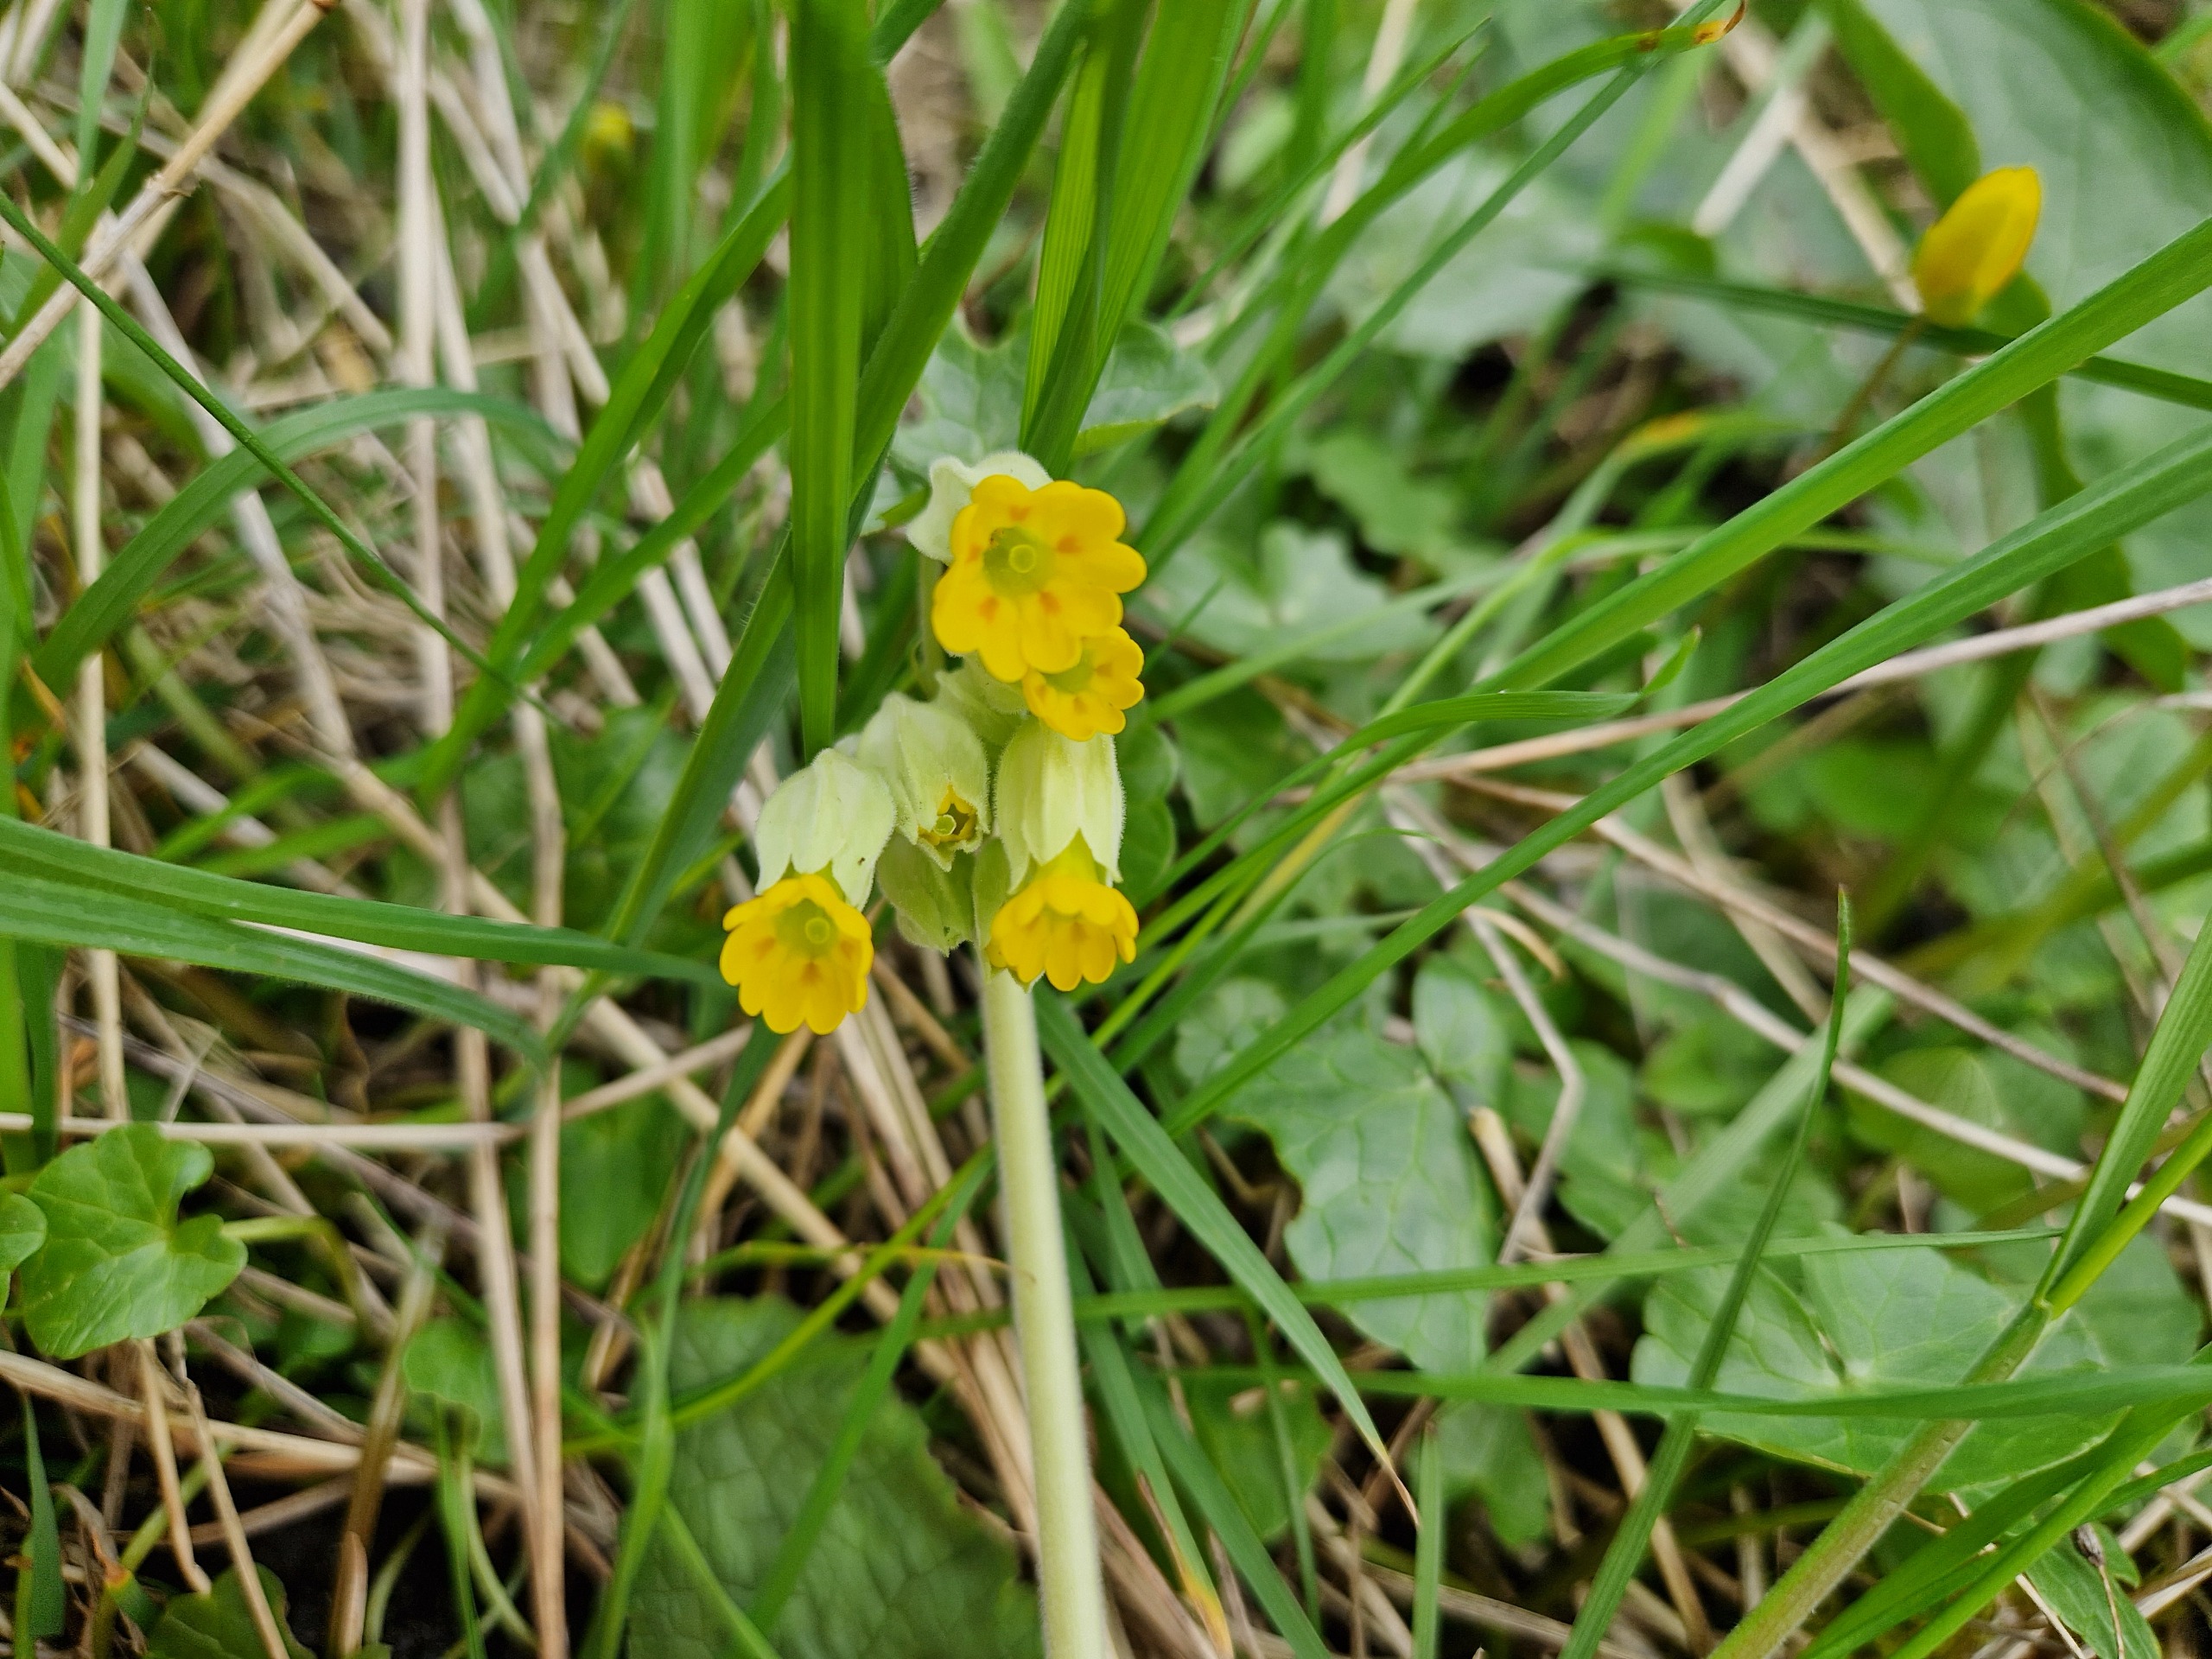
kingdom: Plantae
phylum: Tracheophyta
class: Magnoliopsida
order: Ericales
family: Primulaceae
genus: Primula
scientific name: Primula veris
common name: Hulkravet kodriver
